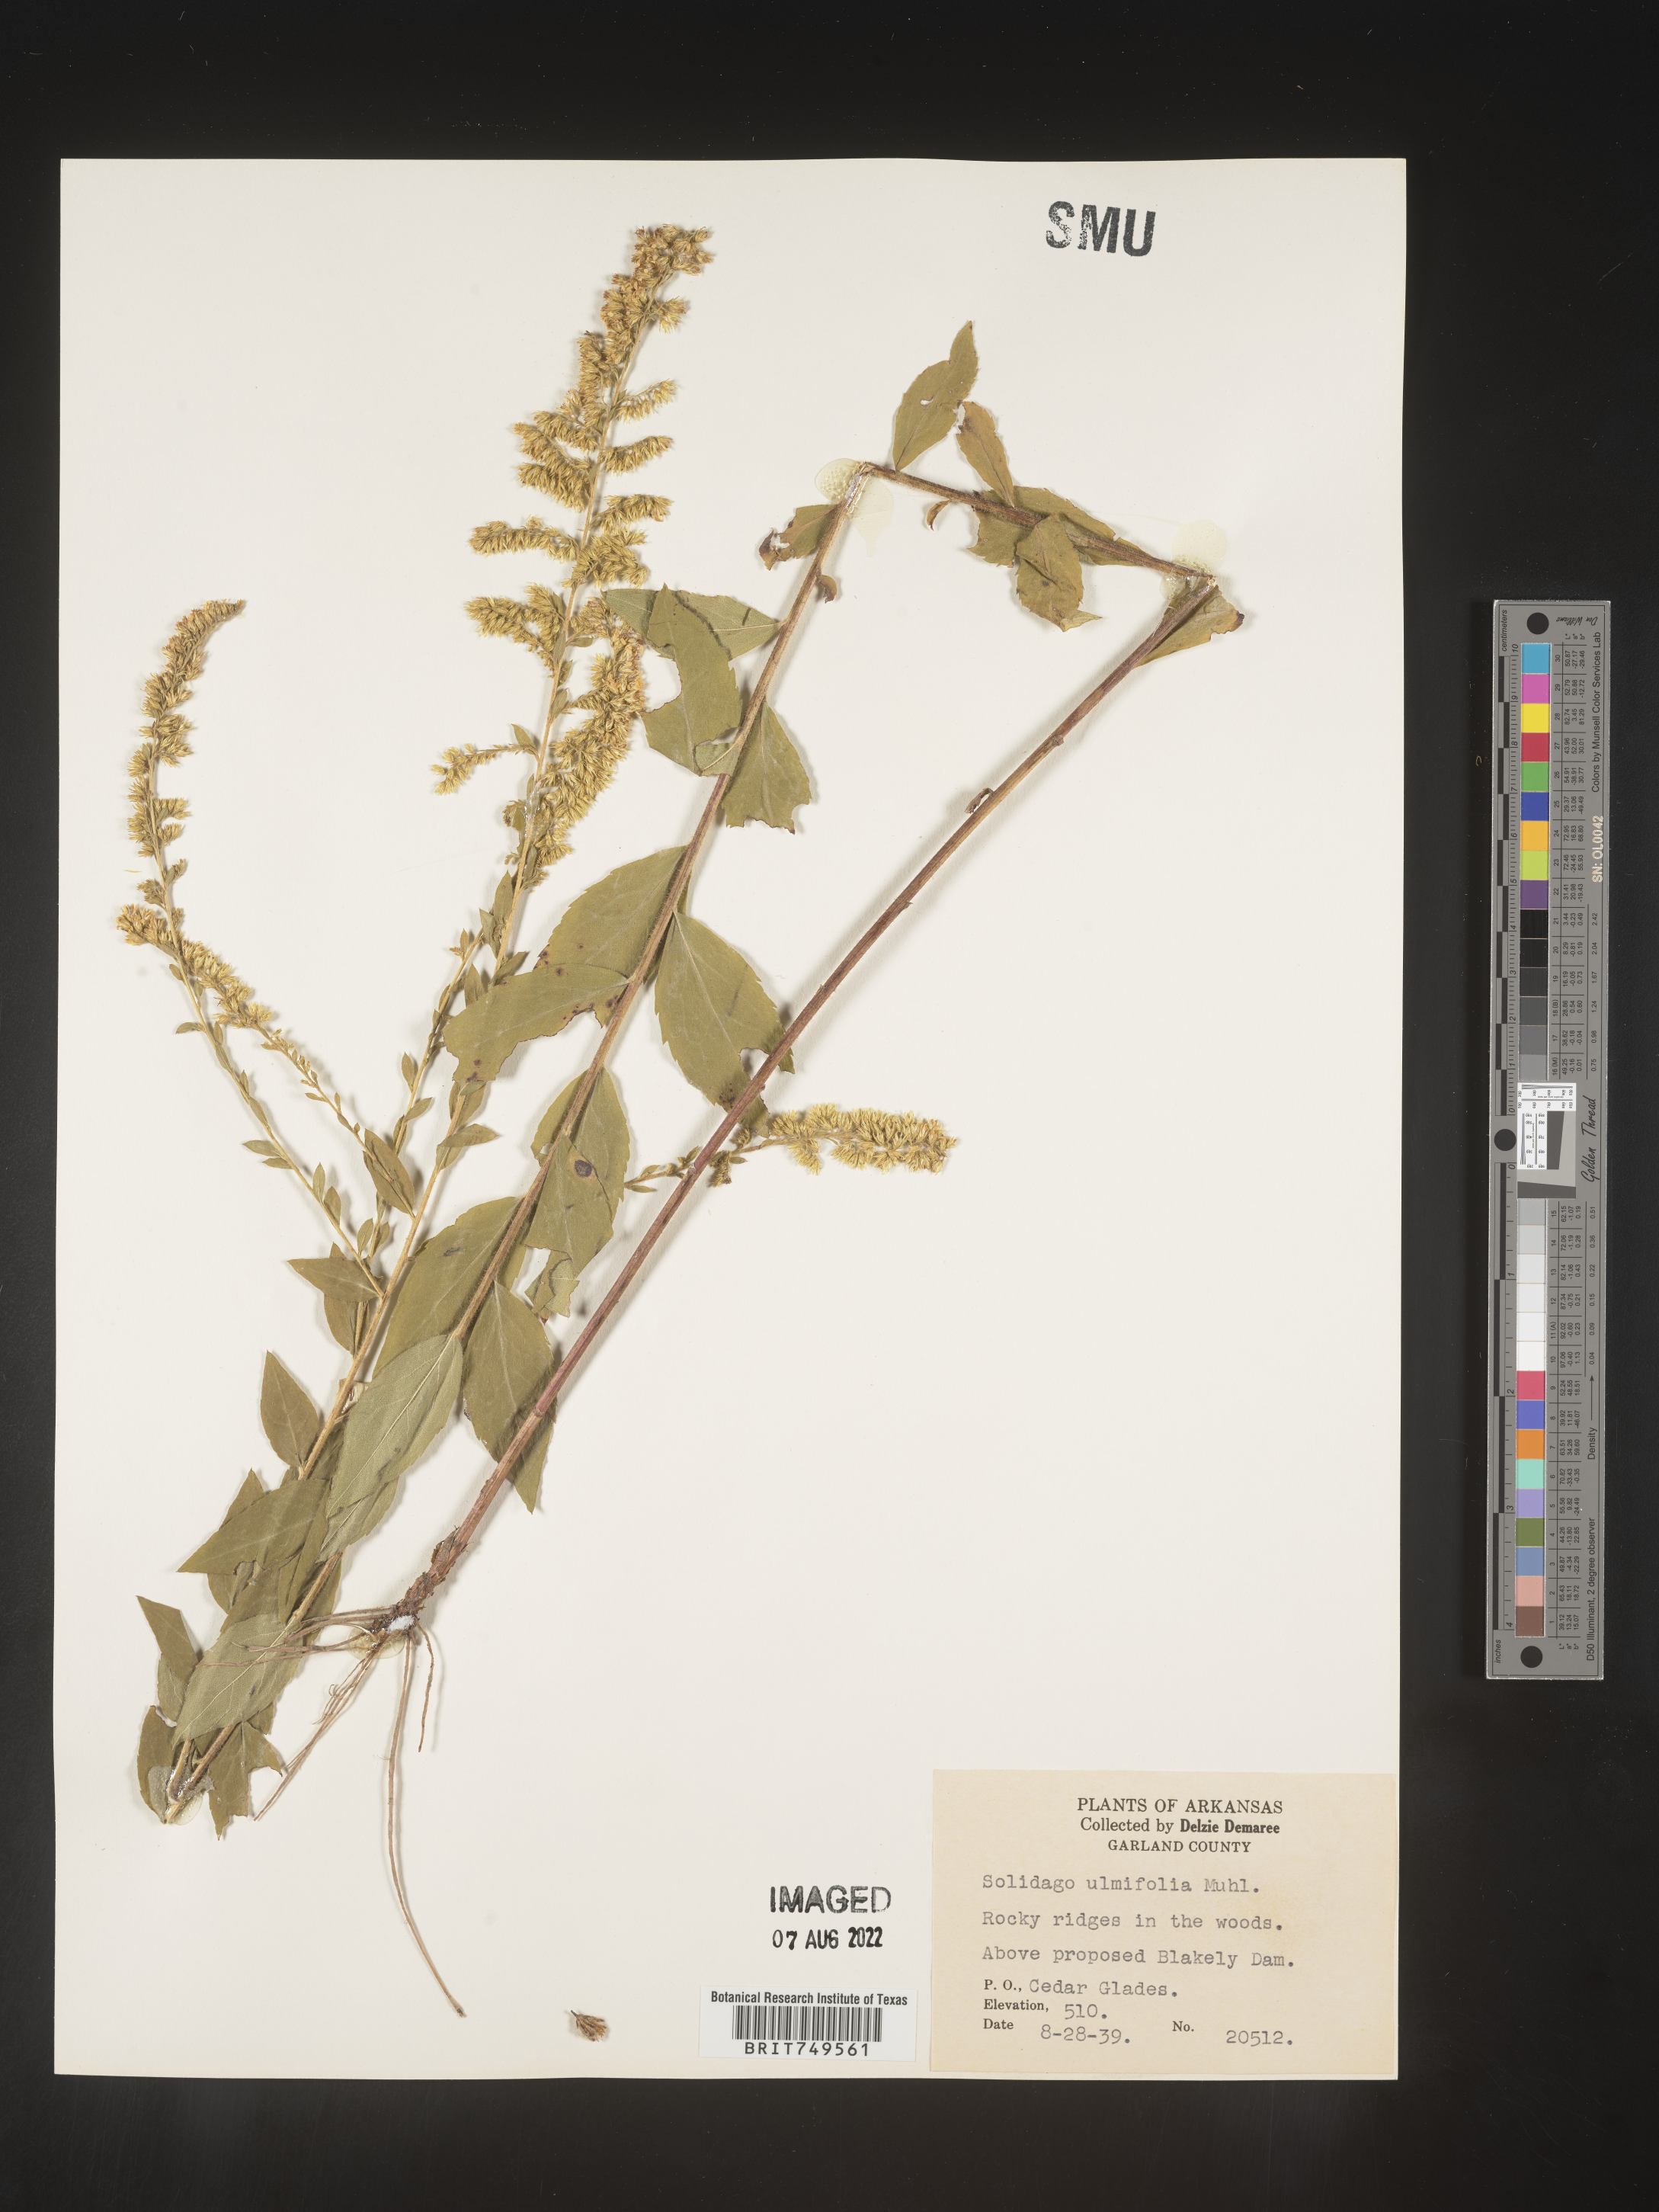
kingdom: Plantae
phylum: Tracheophyta
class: Magnoliopsida
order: Asterales
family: Asteraceae
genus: Solidago
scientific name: Solidago ulmifolia
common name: Elm-leaf goldenrod
